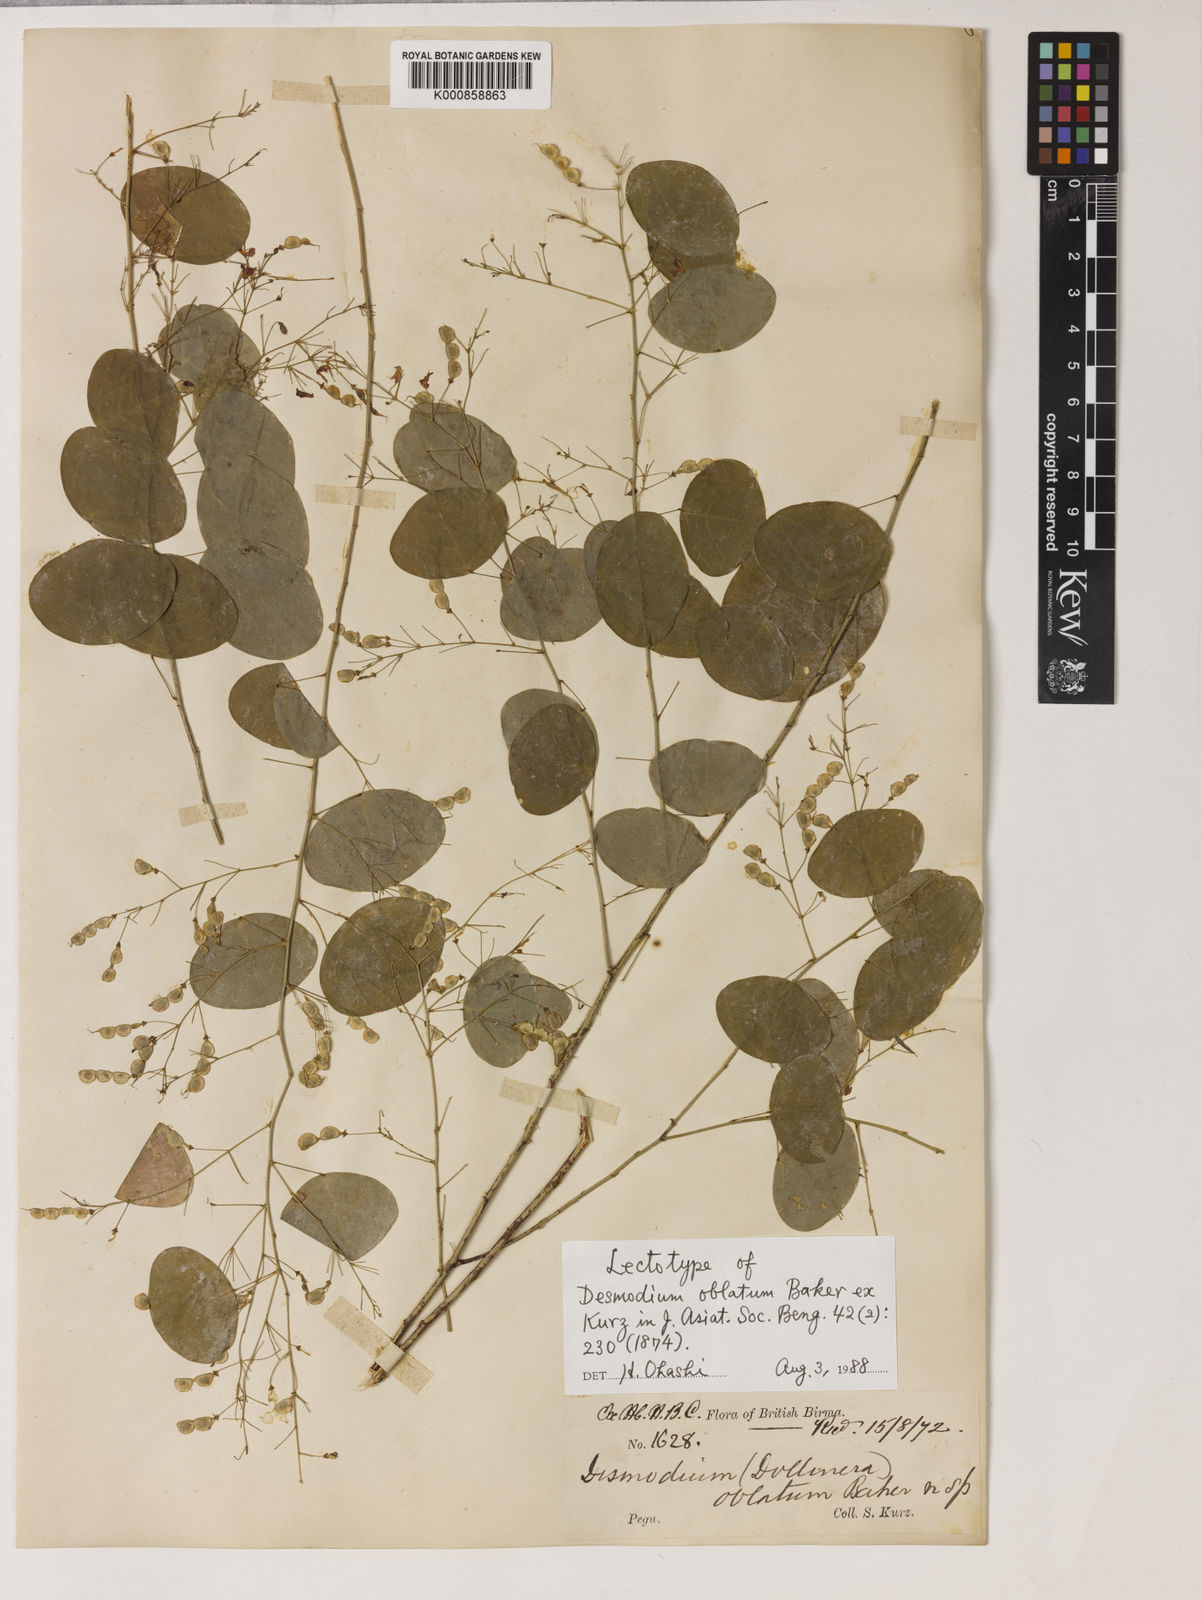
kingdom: Plantae
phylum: Tracheophyta
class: Magnoliopsida
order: Fabales
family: Fabaceae
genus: Huangtcia
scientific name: Huangtcia oblata
